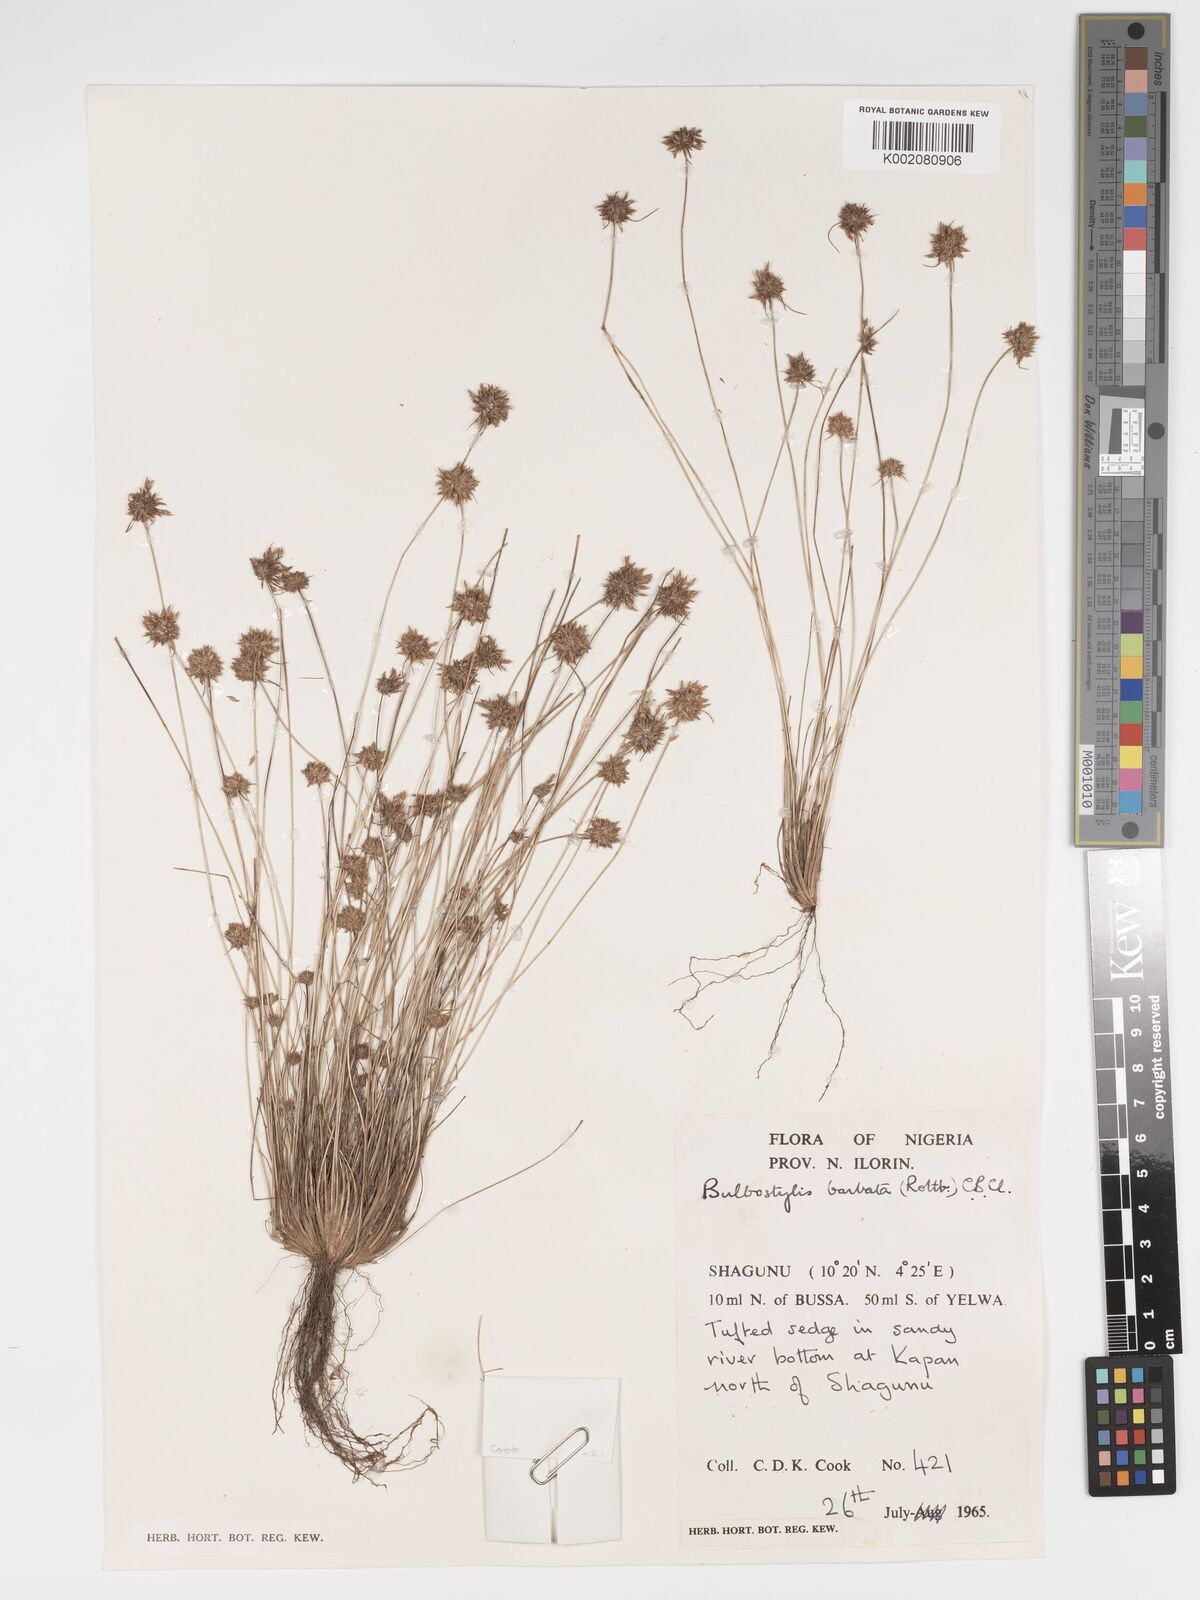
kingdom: Plantae
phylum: Tracheophyta
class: Liliopsida
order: Poales
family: Cyperaceae
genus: Bulbostylis
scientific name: Bulbostylis barbata
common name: Watergrass
